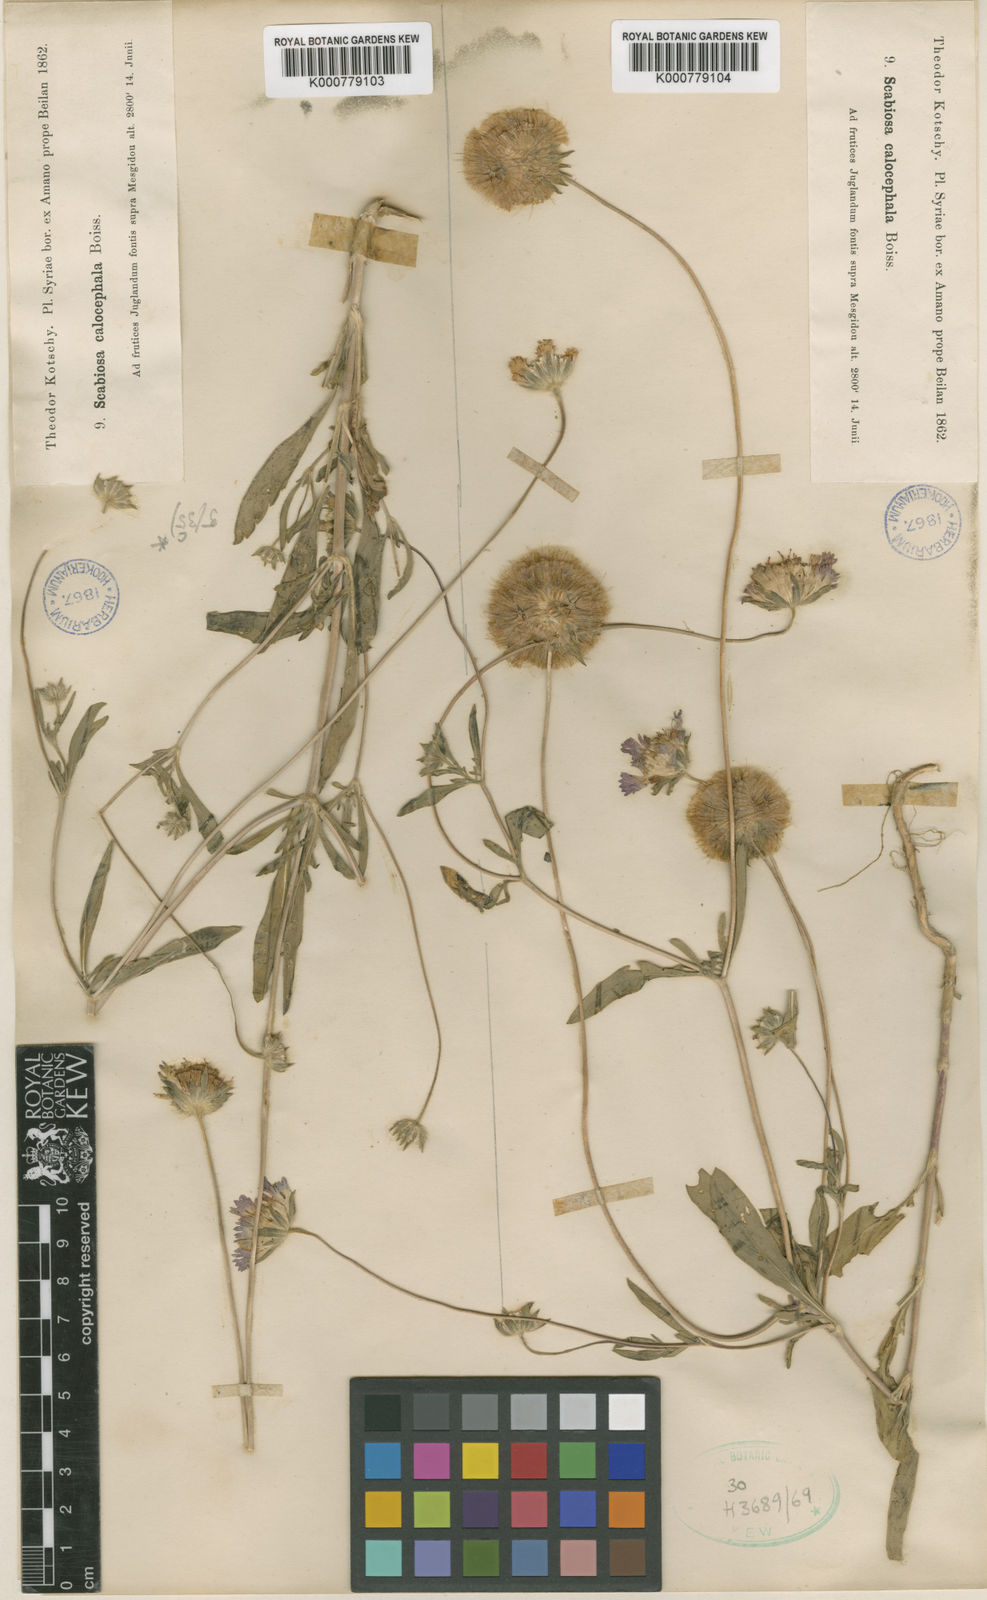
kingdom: Plantae
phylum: Tracheophyta
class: Magnoliopsida
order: Dipsacales
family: Caprifoliaceae
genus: Lomelosia
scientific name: Lomelosia palaestina
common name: Balkan pincushions
